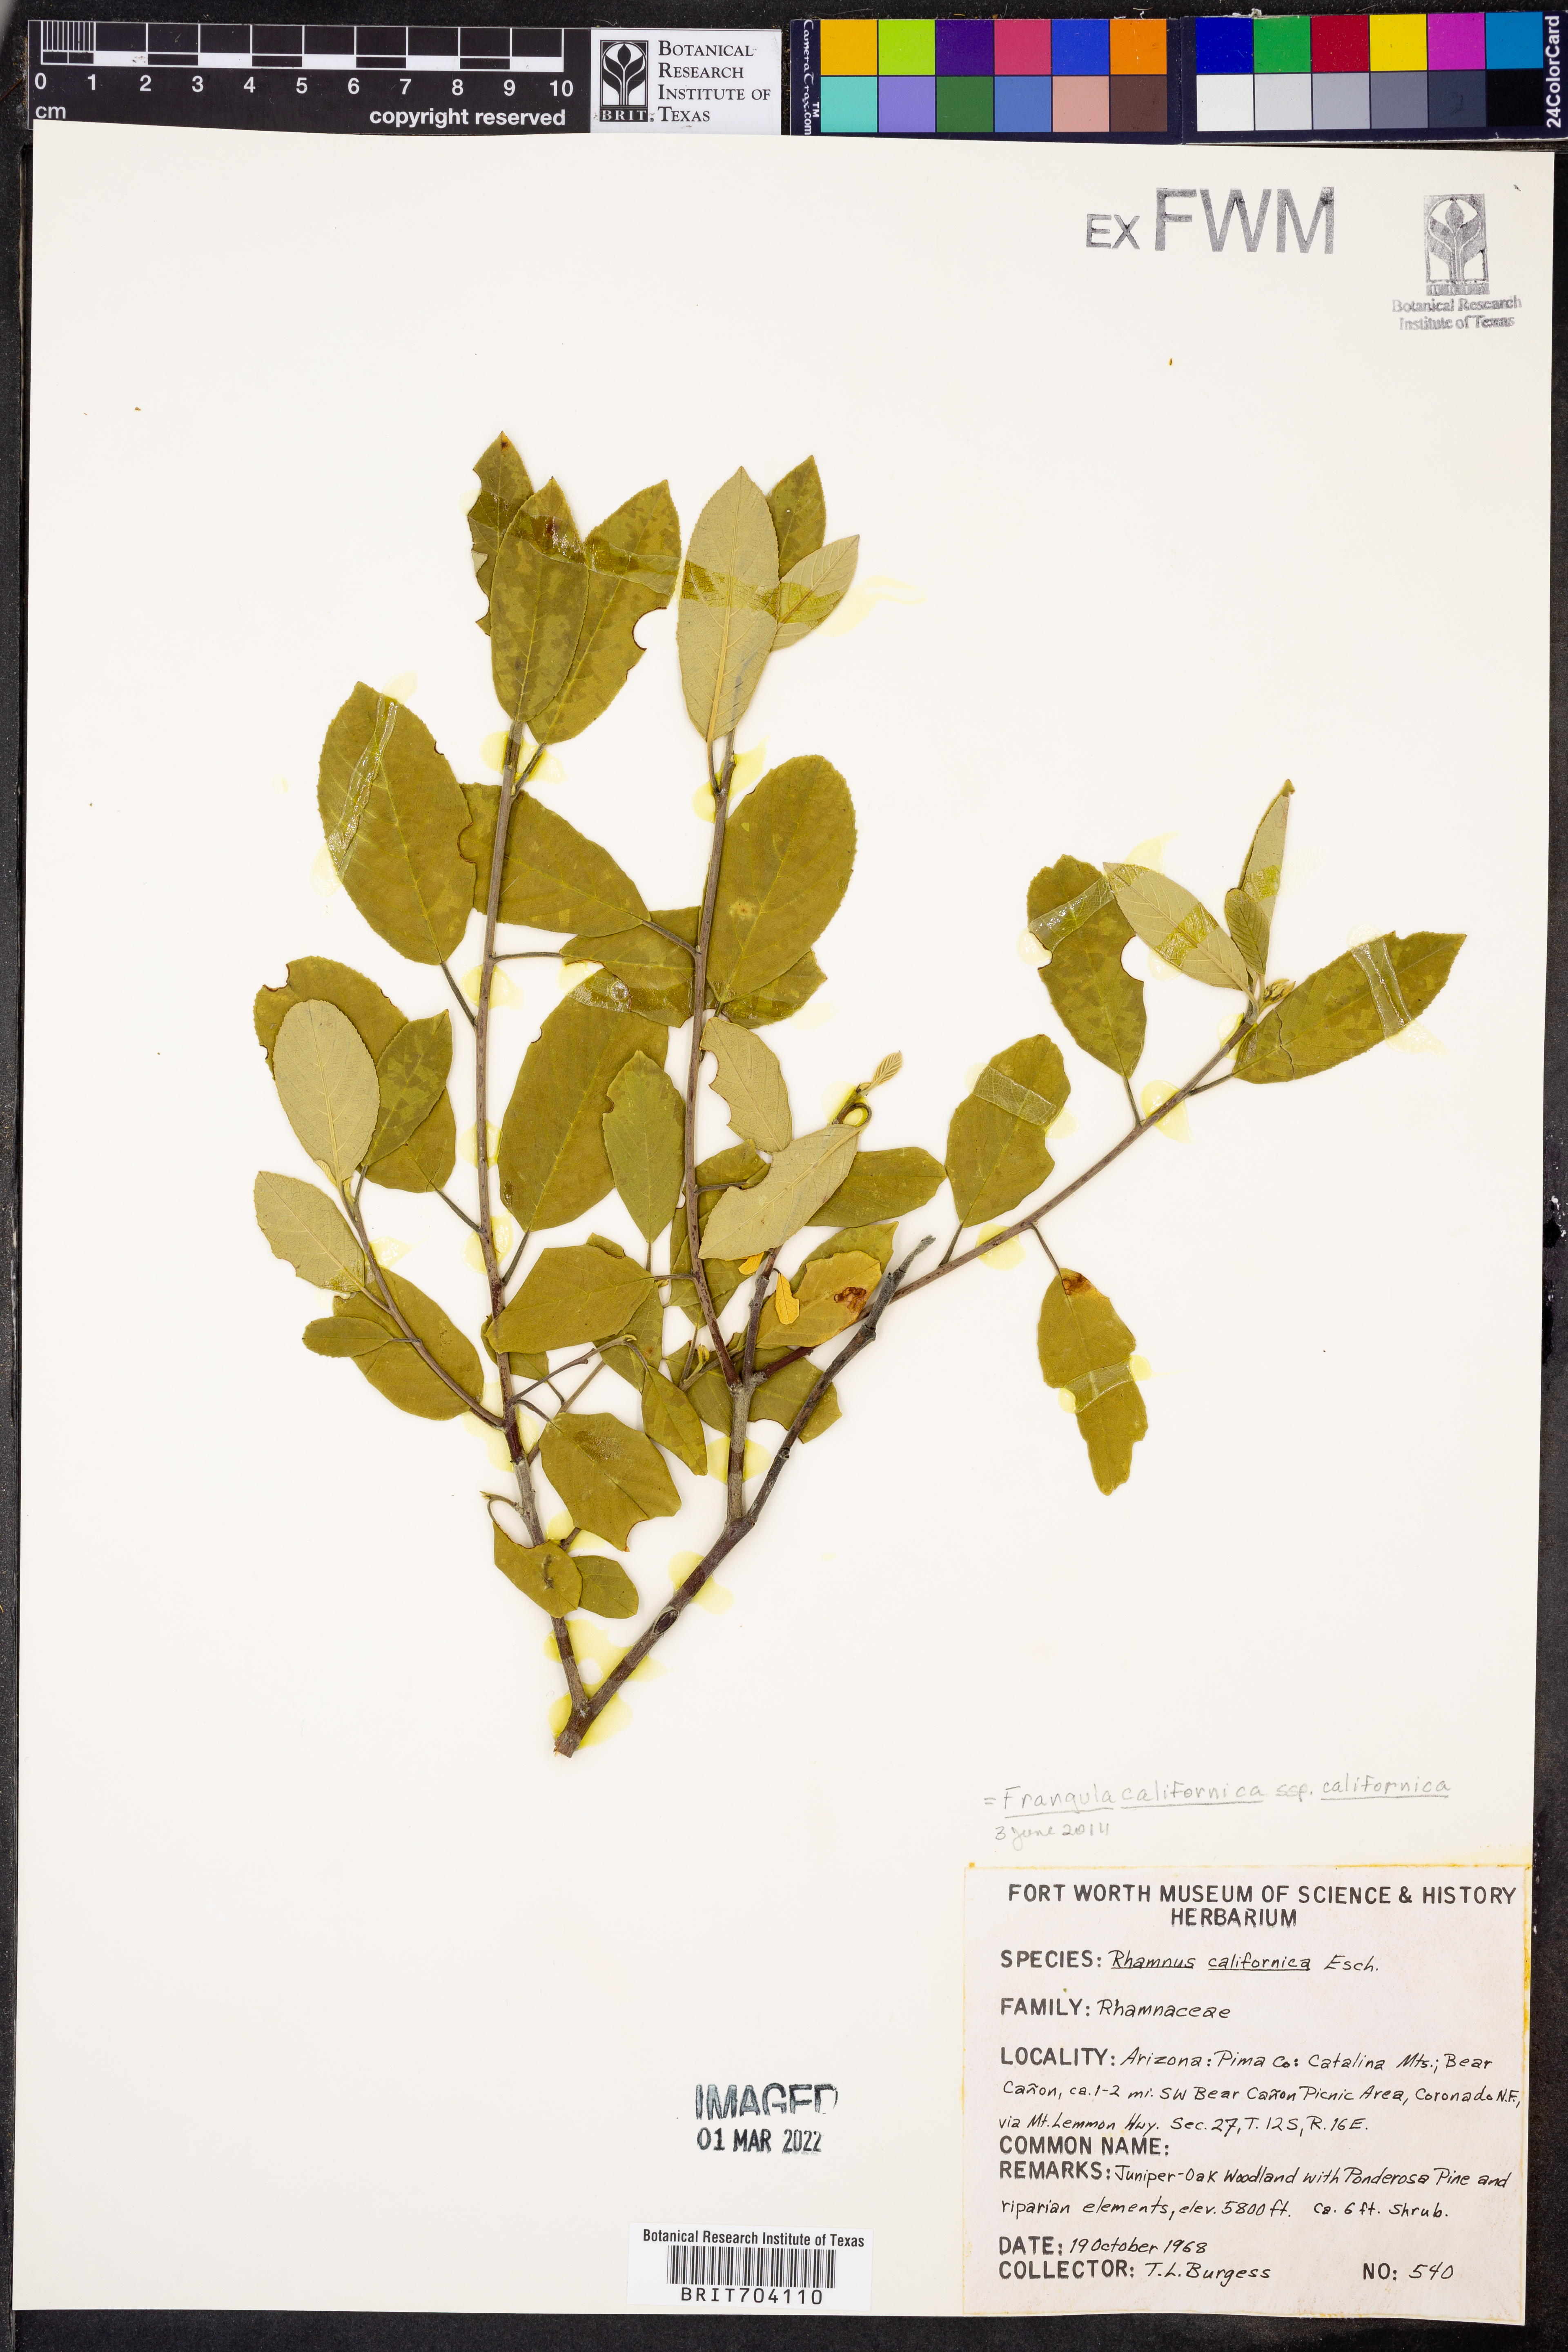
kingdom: Plantae
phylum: Tracheophyta
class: Magnoliopsida
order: Rosales
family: Rhamnaceae
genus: Frangula
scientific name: Frangula
